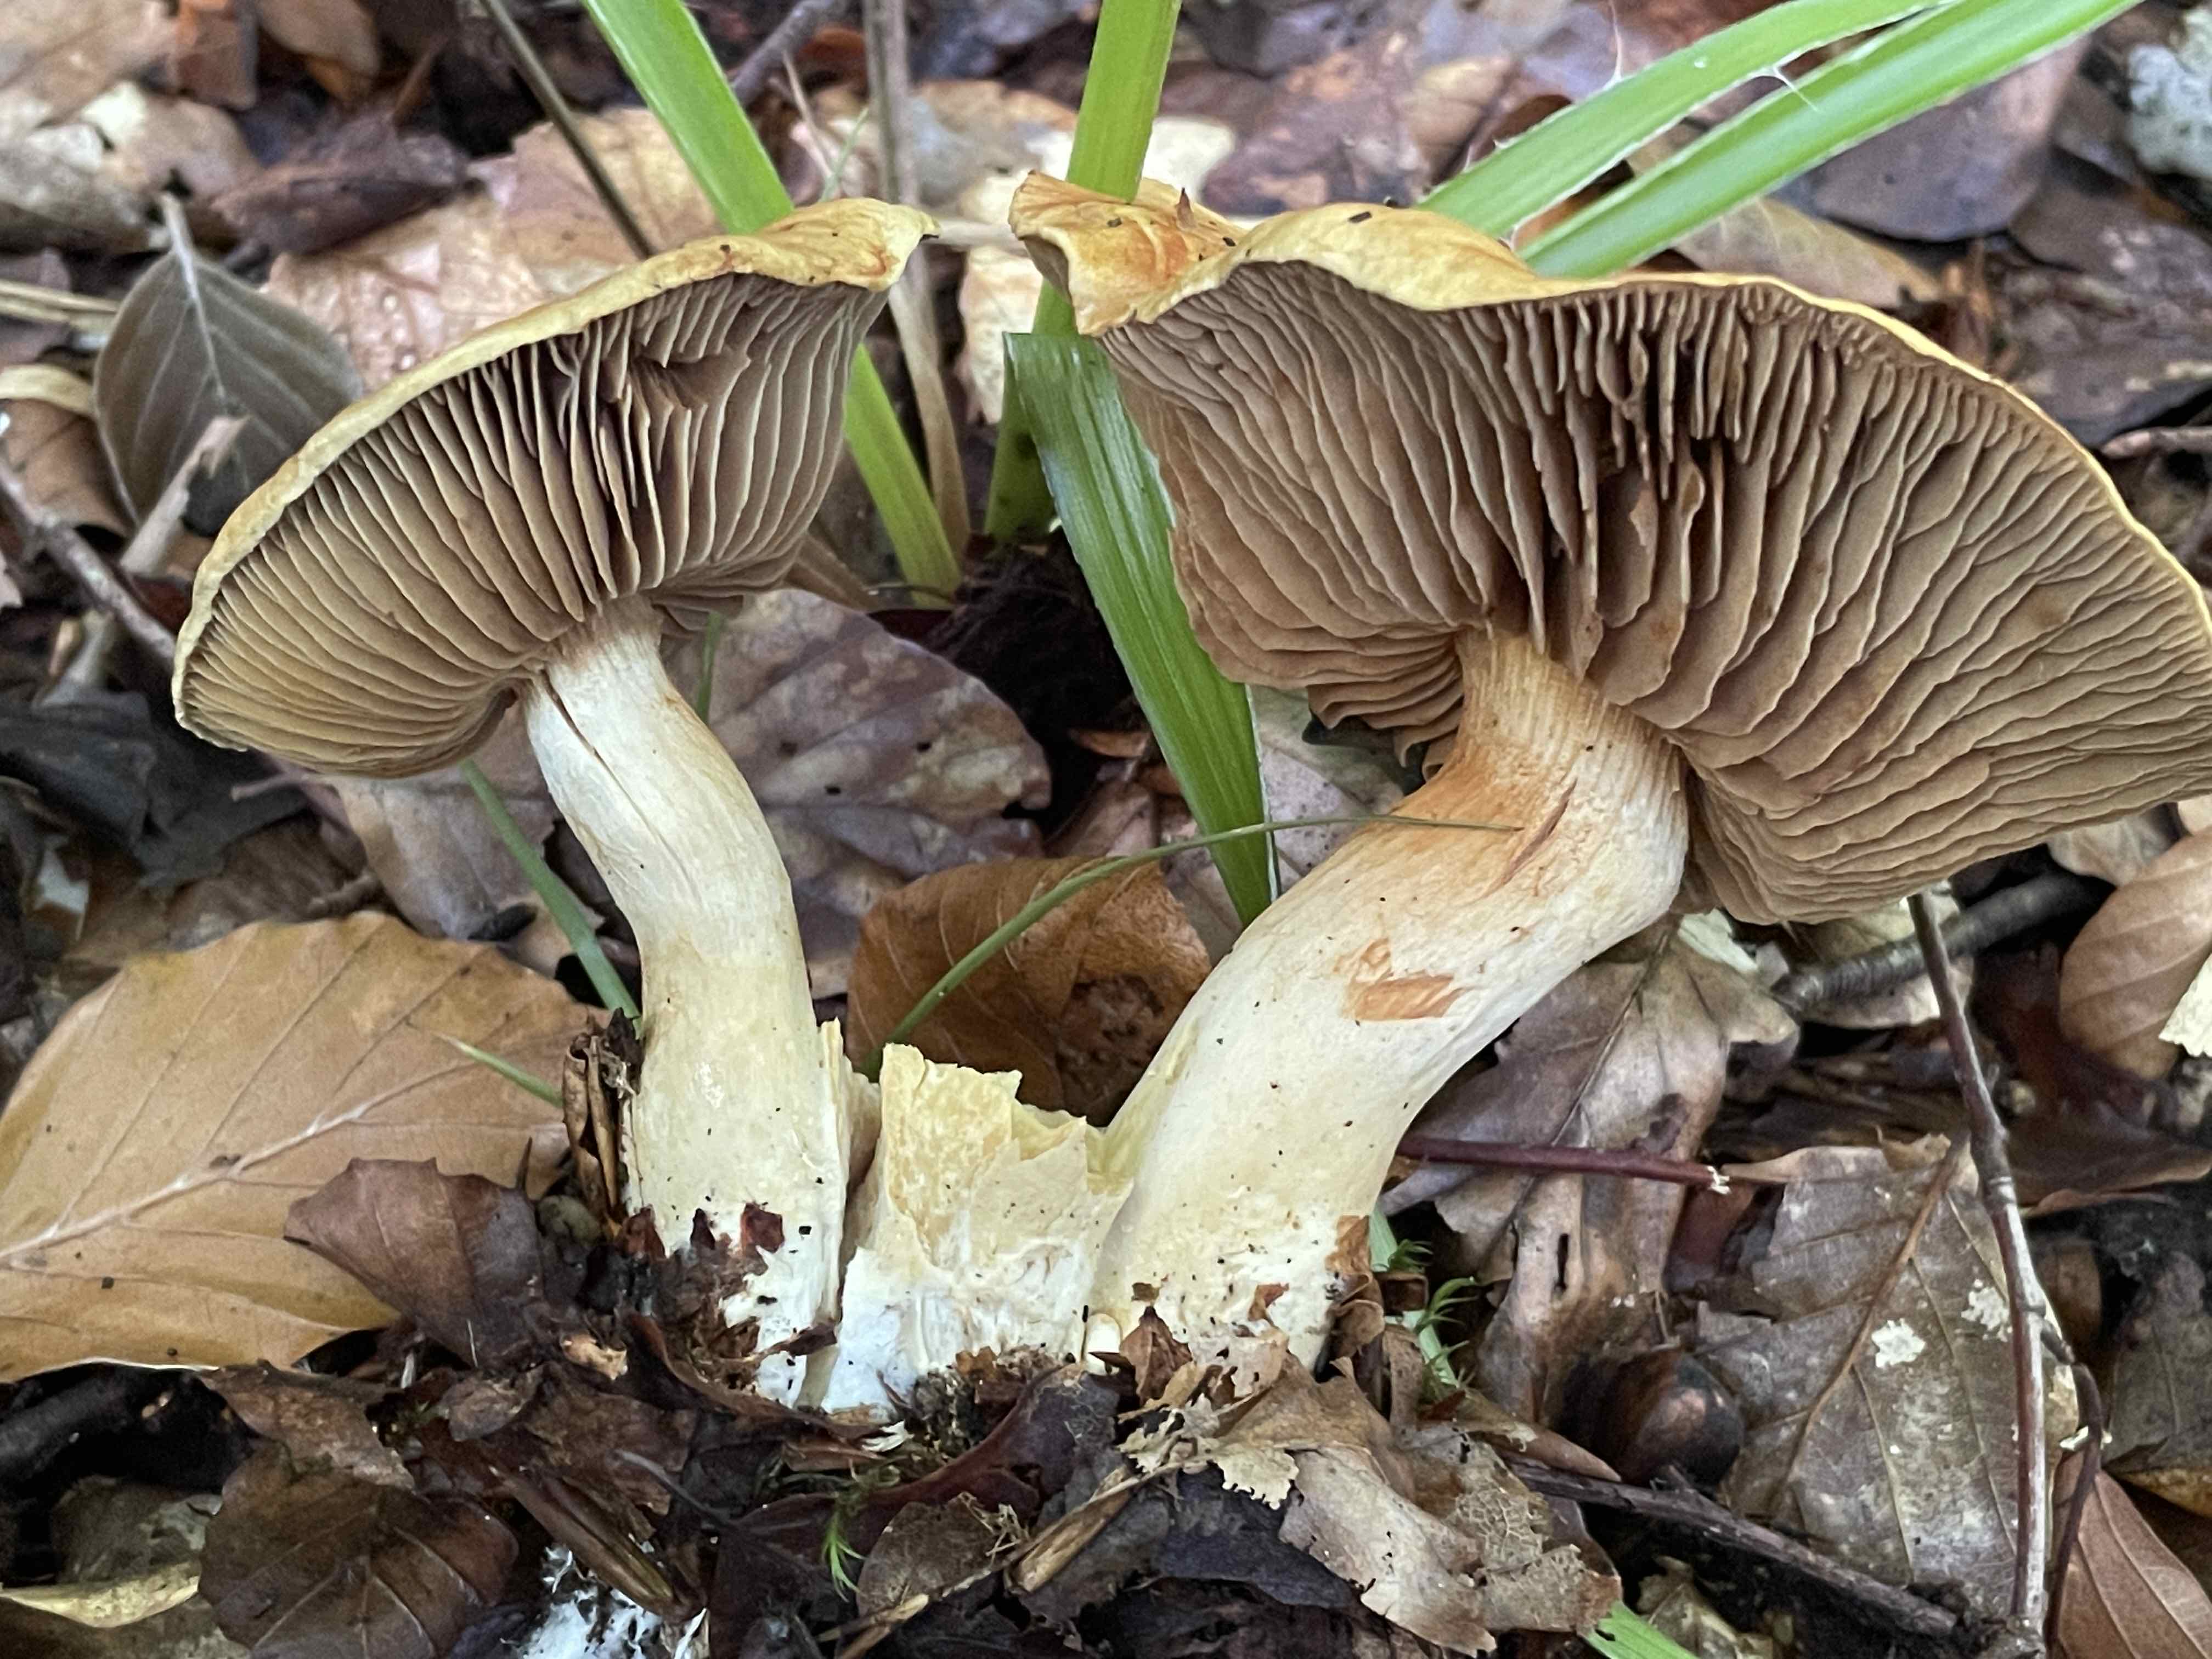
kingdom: Fungi
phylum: Basidiomycota
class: Agaricomycetes
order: Agaricales
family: Cortinariaceae
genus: Cortinarius
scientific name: Cortinarius subtortus
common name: olivengul slørhat
